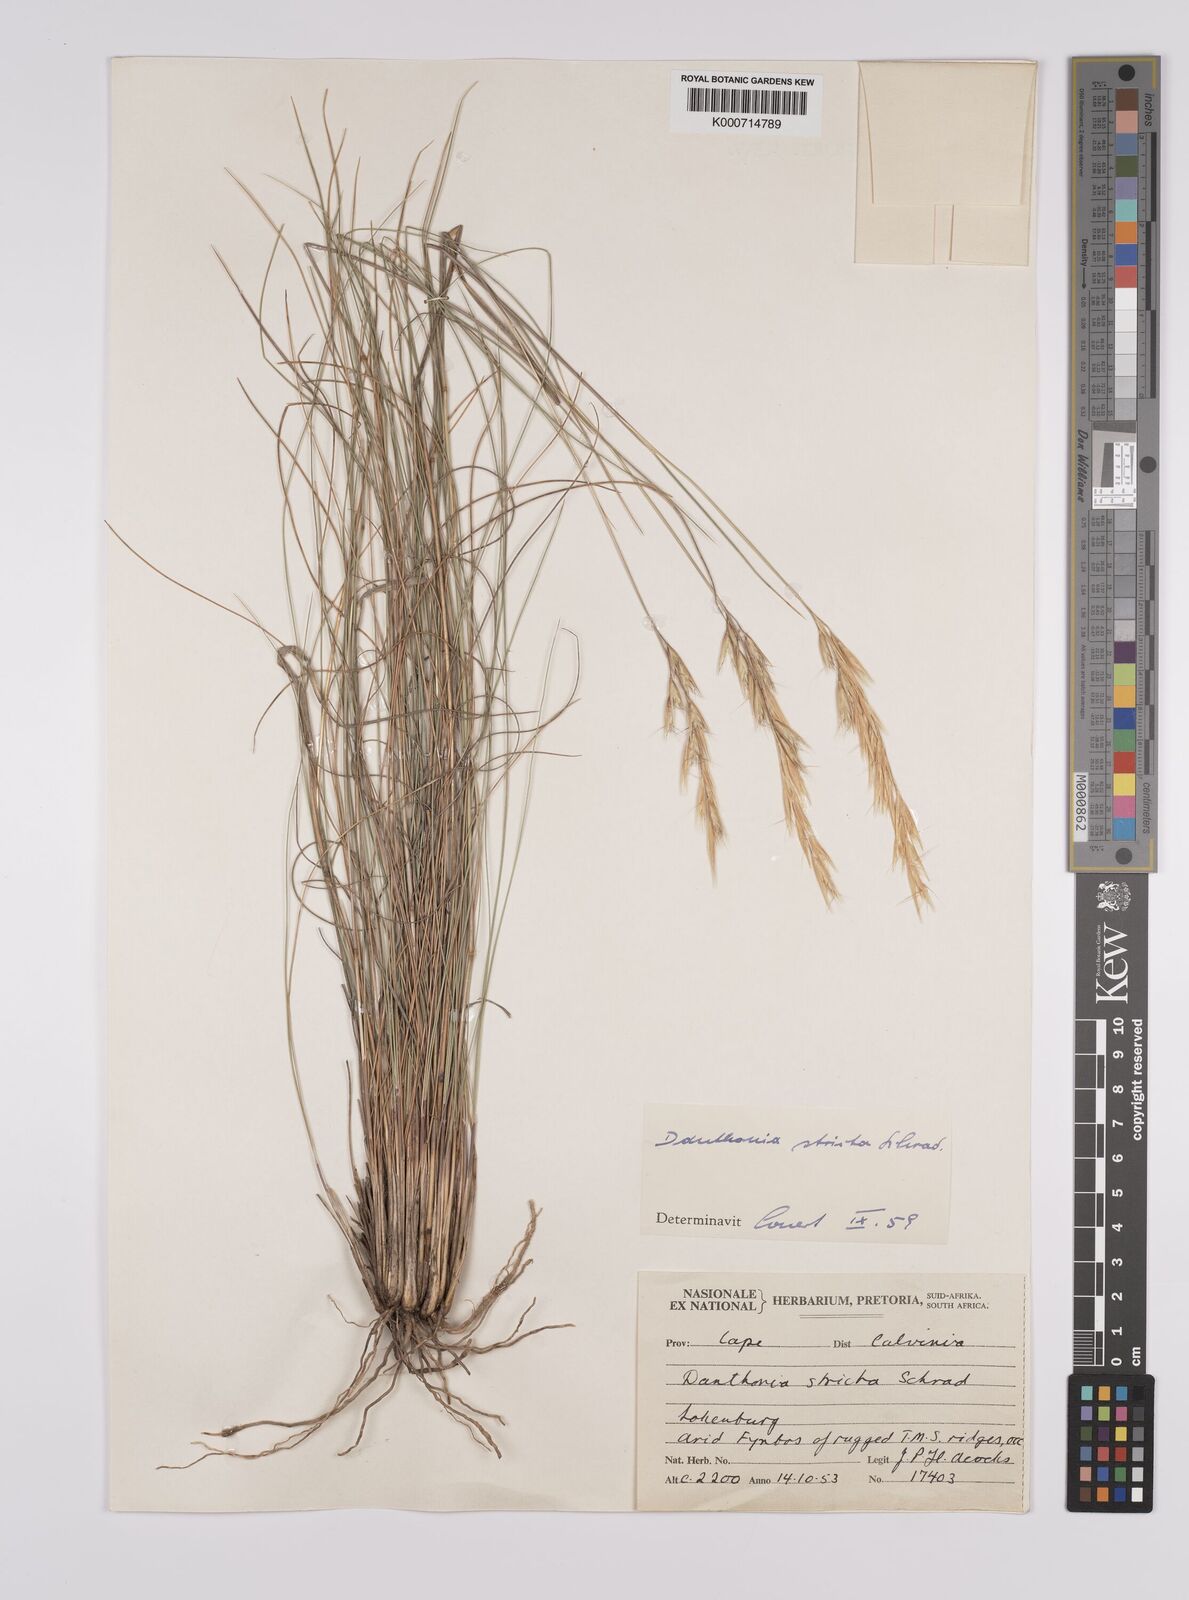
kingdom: Plantae
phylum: Tracheophyta
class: Liliopsida
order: Poales
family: Poaceae
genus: Rytidosperma
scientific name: Rytidosperma
